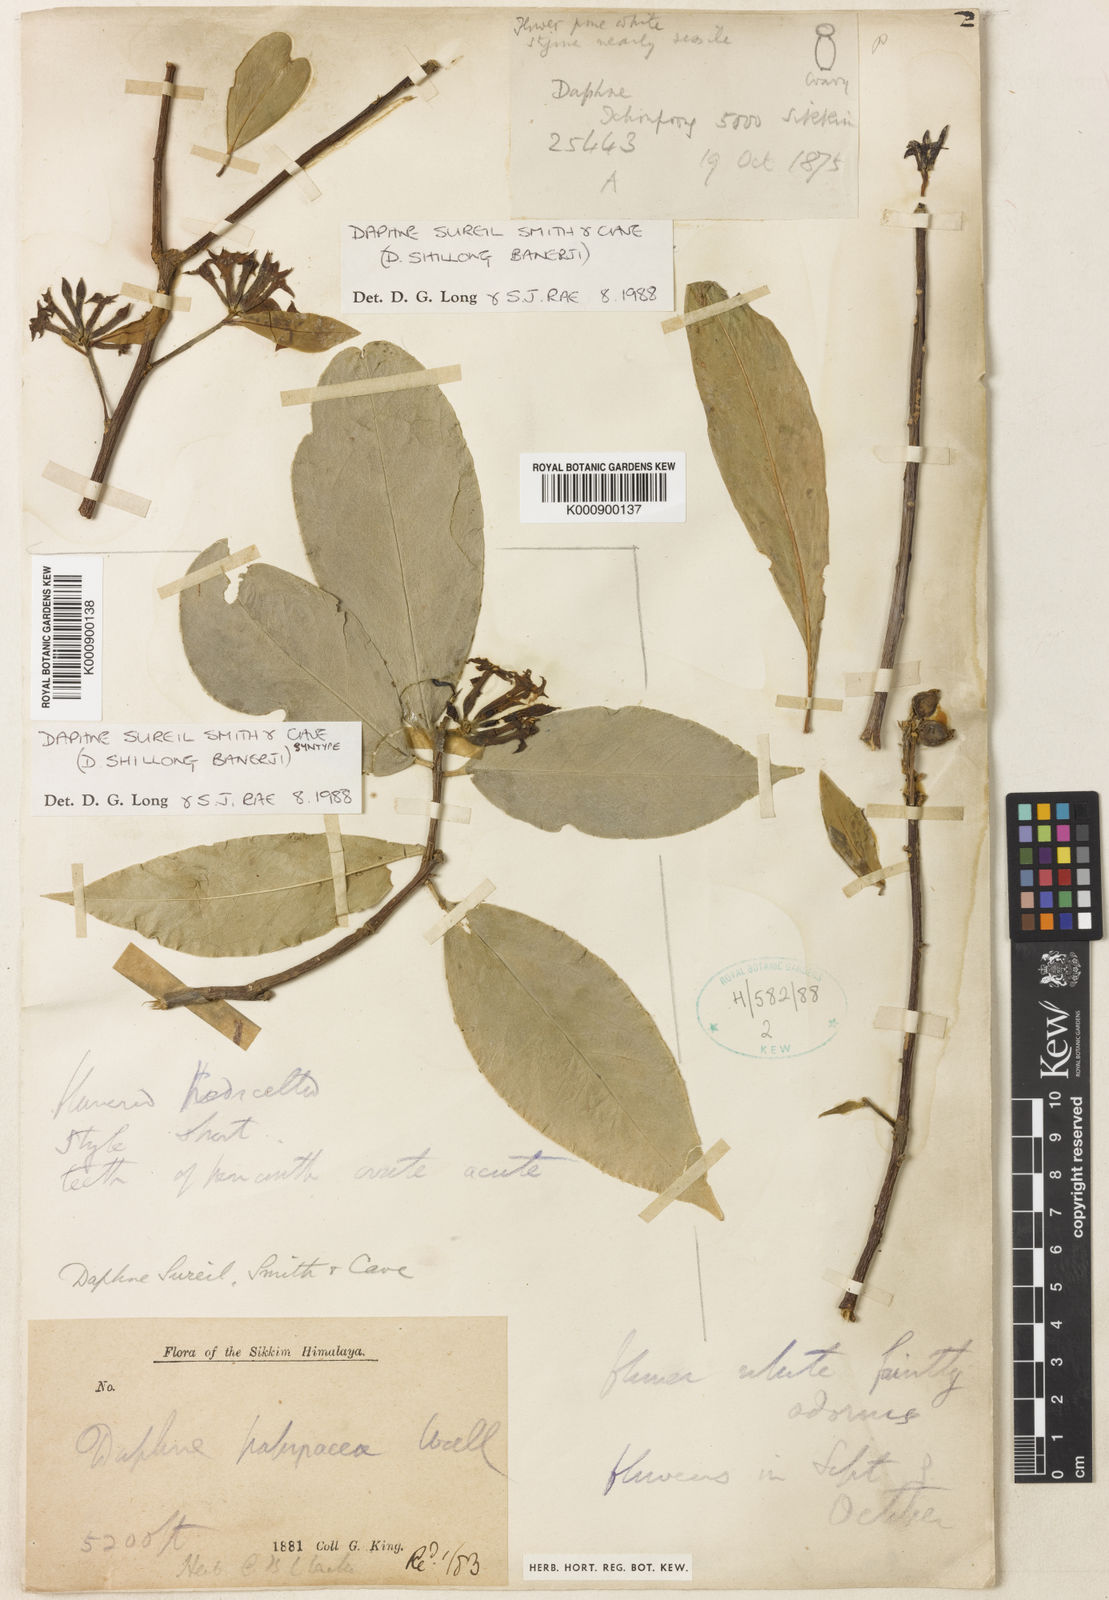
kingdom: Plantae
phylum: Tracheophyta
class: Magnoliopsida
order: Malvales
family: Thymelaeaceae
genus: Daphne
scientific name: Daphne sureil
